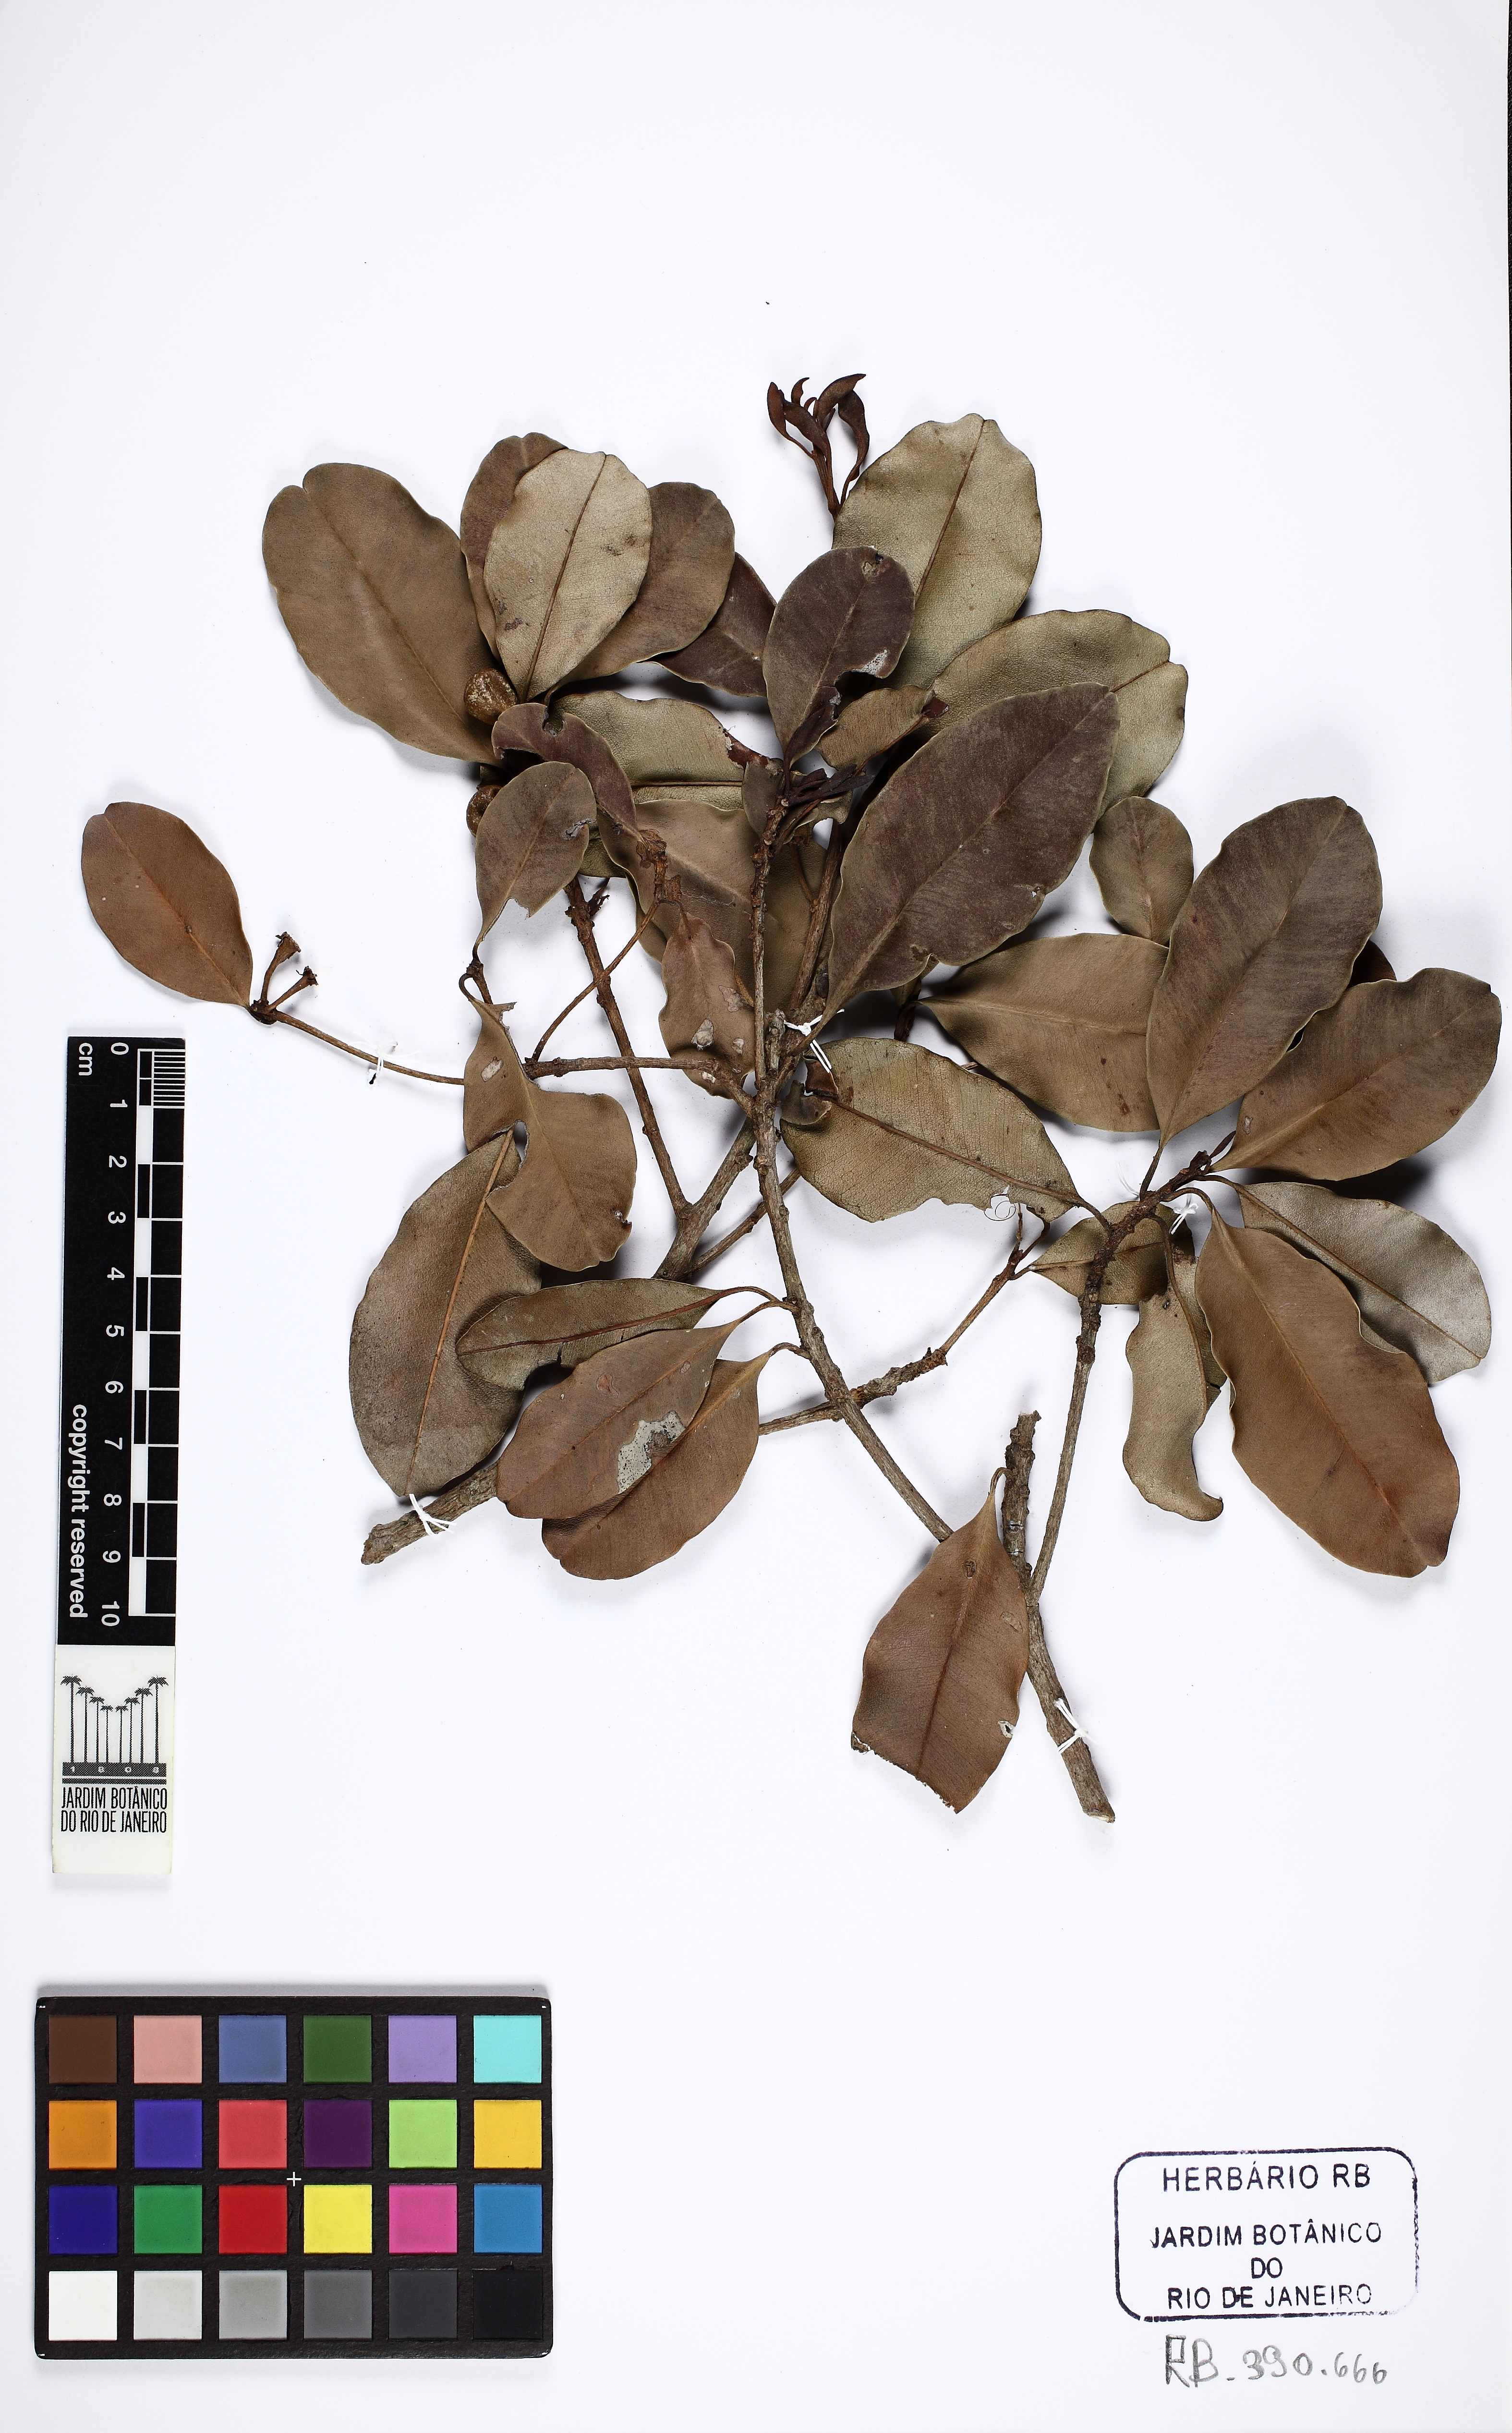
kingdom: Plantae
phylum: Tracheophyta
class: Magnoliopsida
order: Ericales
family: Theaceae
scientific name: Theaceae
